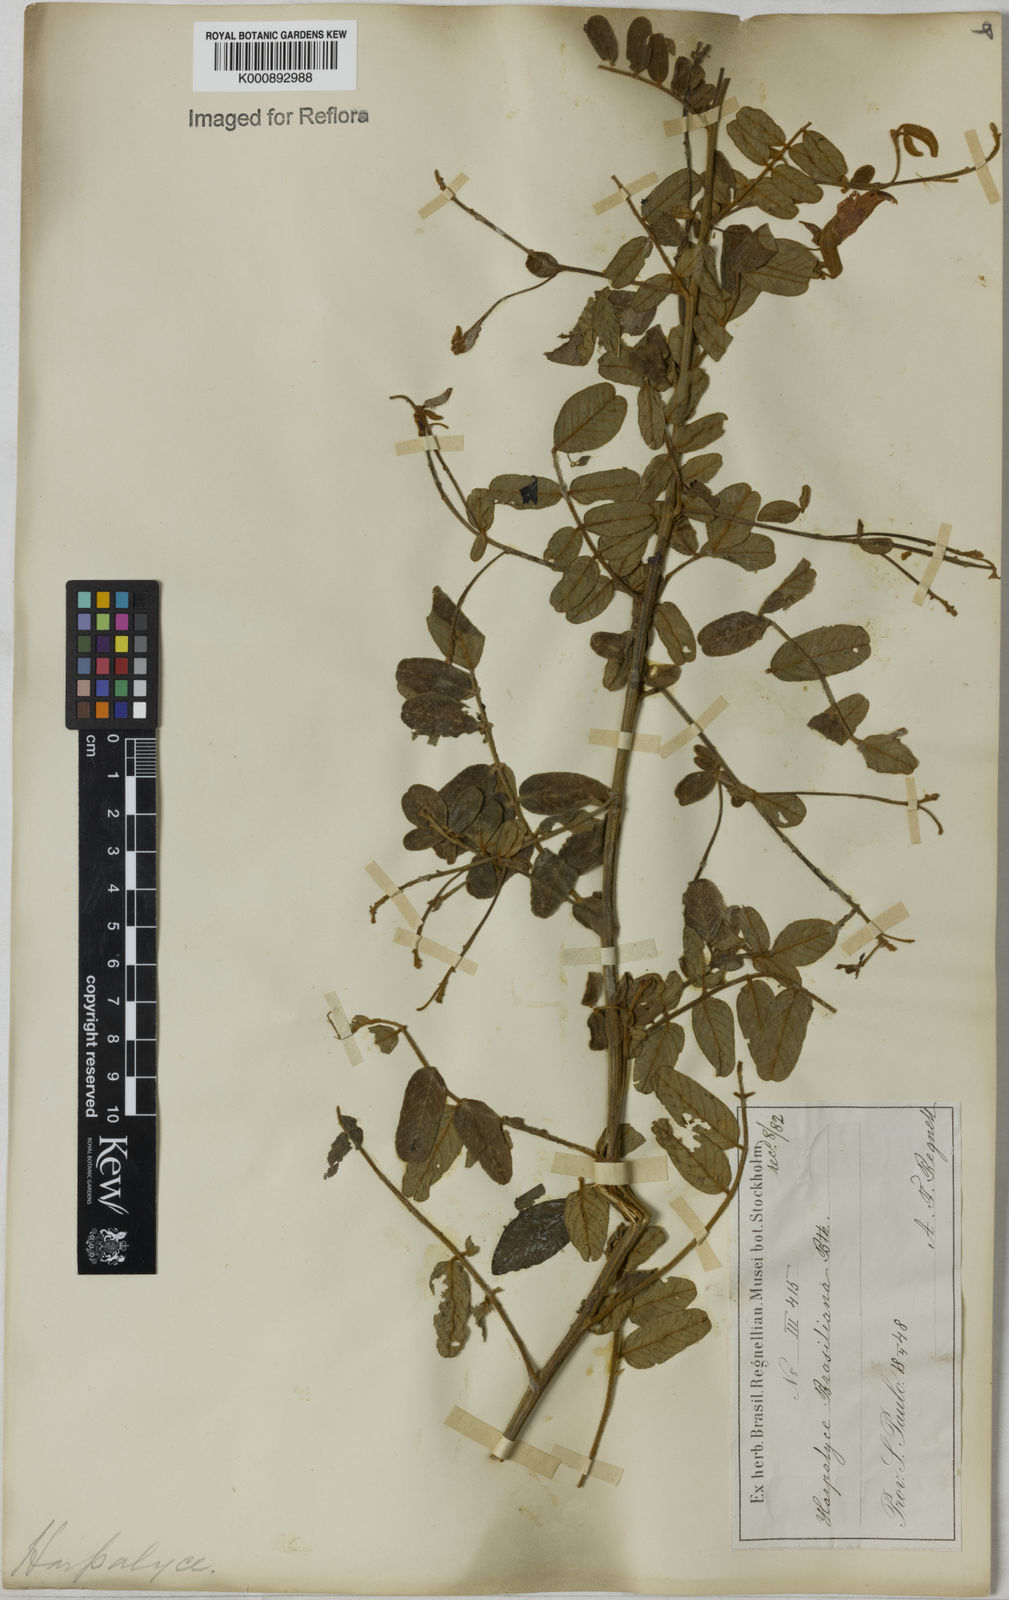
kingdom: Plantae
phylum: Tracheophyta
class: Magnoliopsida
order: Fabales
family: Fabaceae
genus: Harpalyce
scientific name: Harpalyce brasiliana
